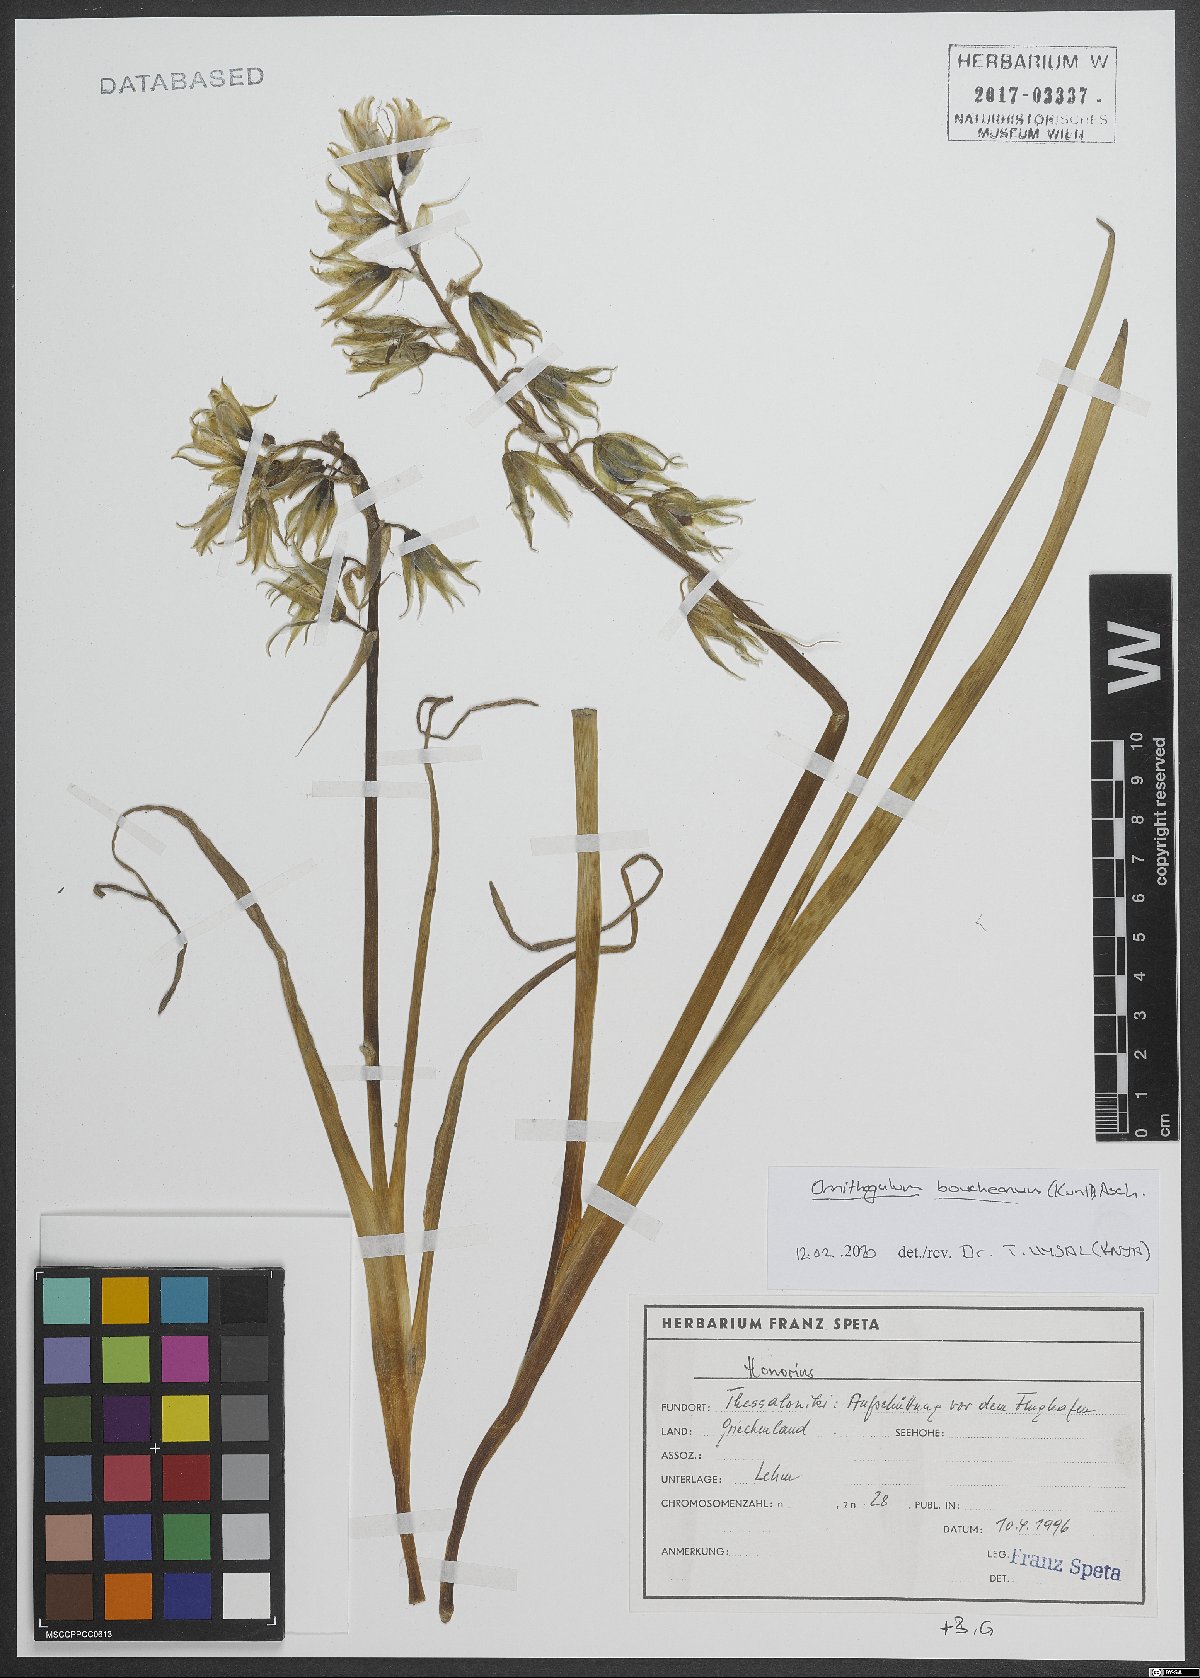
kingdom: Plantae
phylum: Tracheophyta
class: Liliopsida
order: Asparagales
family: Asparagaceae
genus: Ornithogalum
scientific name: Ornithogalum boucheanum
